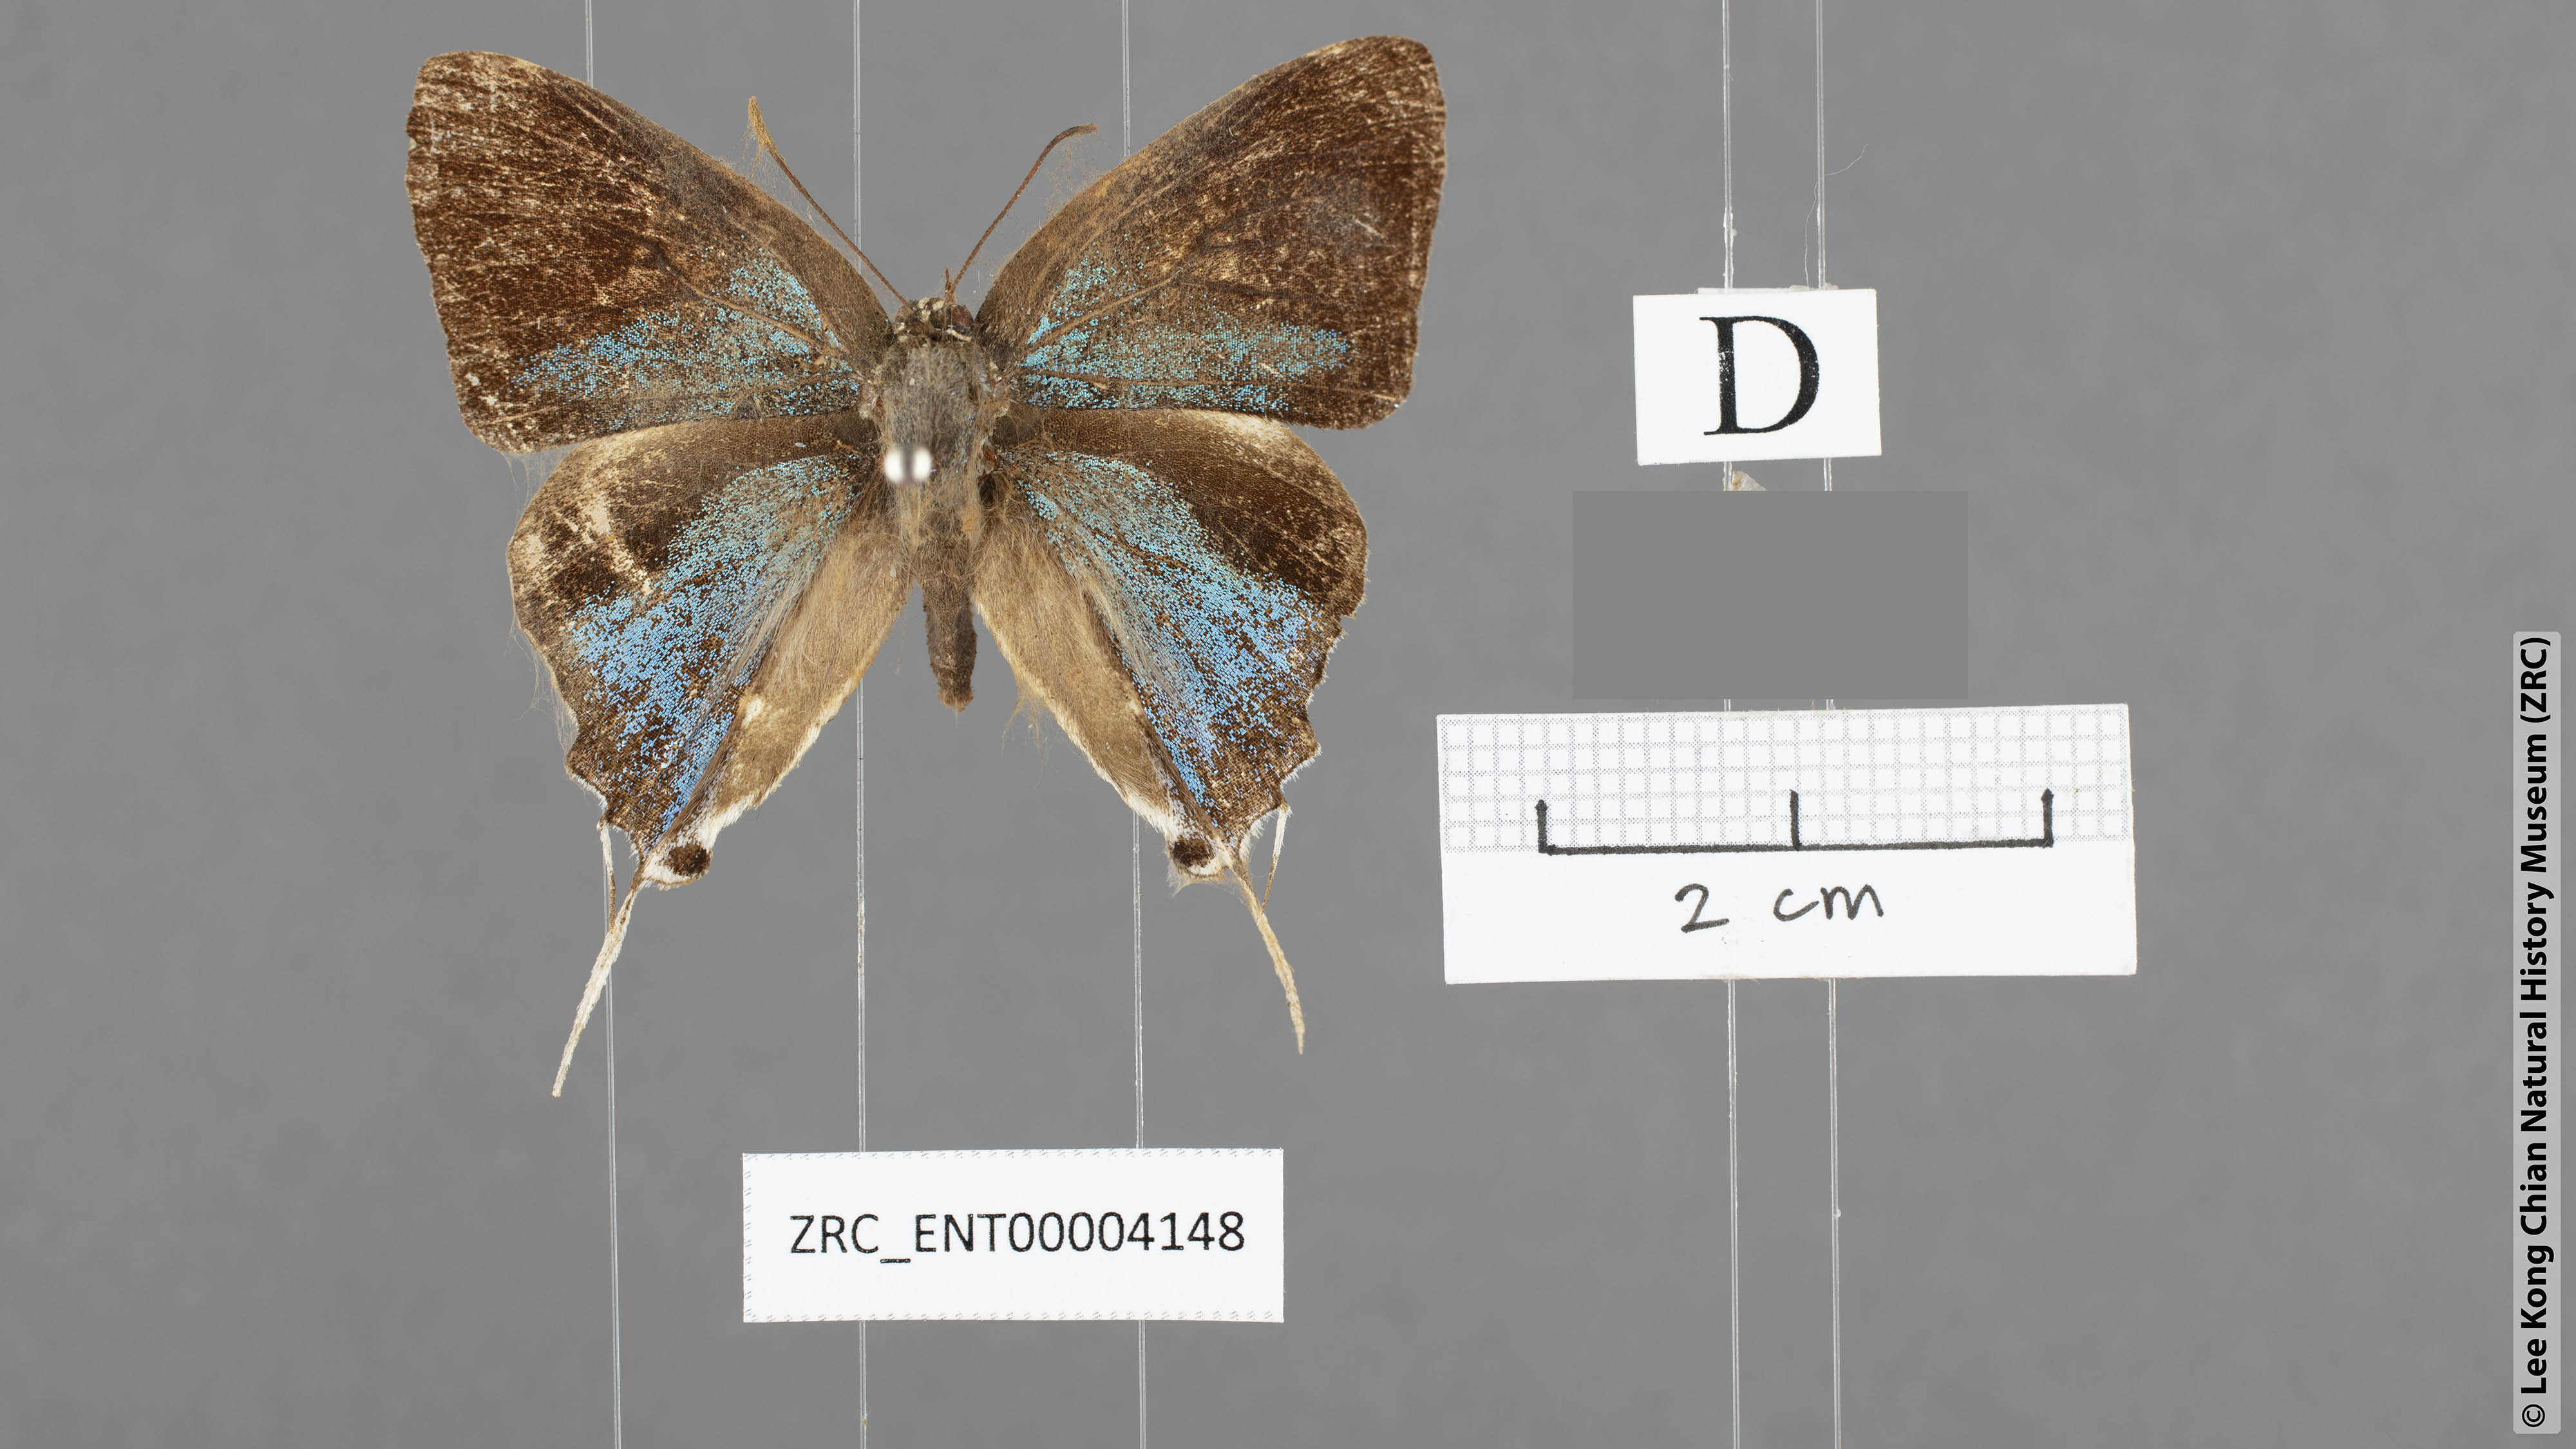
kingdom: Animalia
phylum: Arthropoda
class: Insecta
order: Lepidoptera
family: Lycaenidae
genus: Charana
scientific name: Charana mandarinus
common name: Mandarin blue
